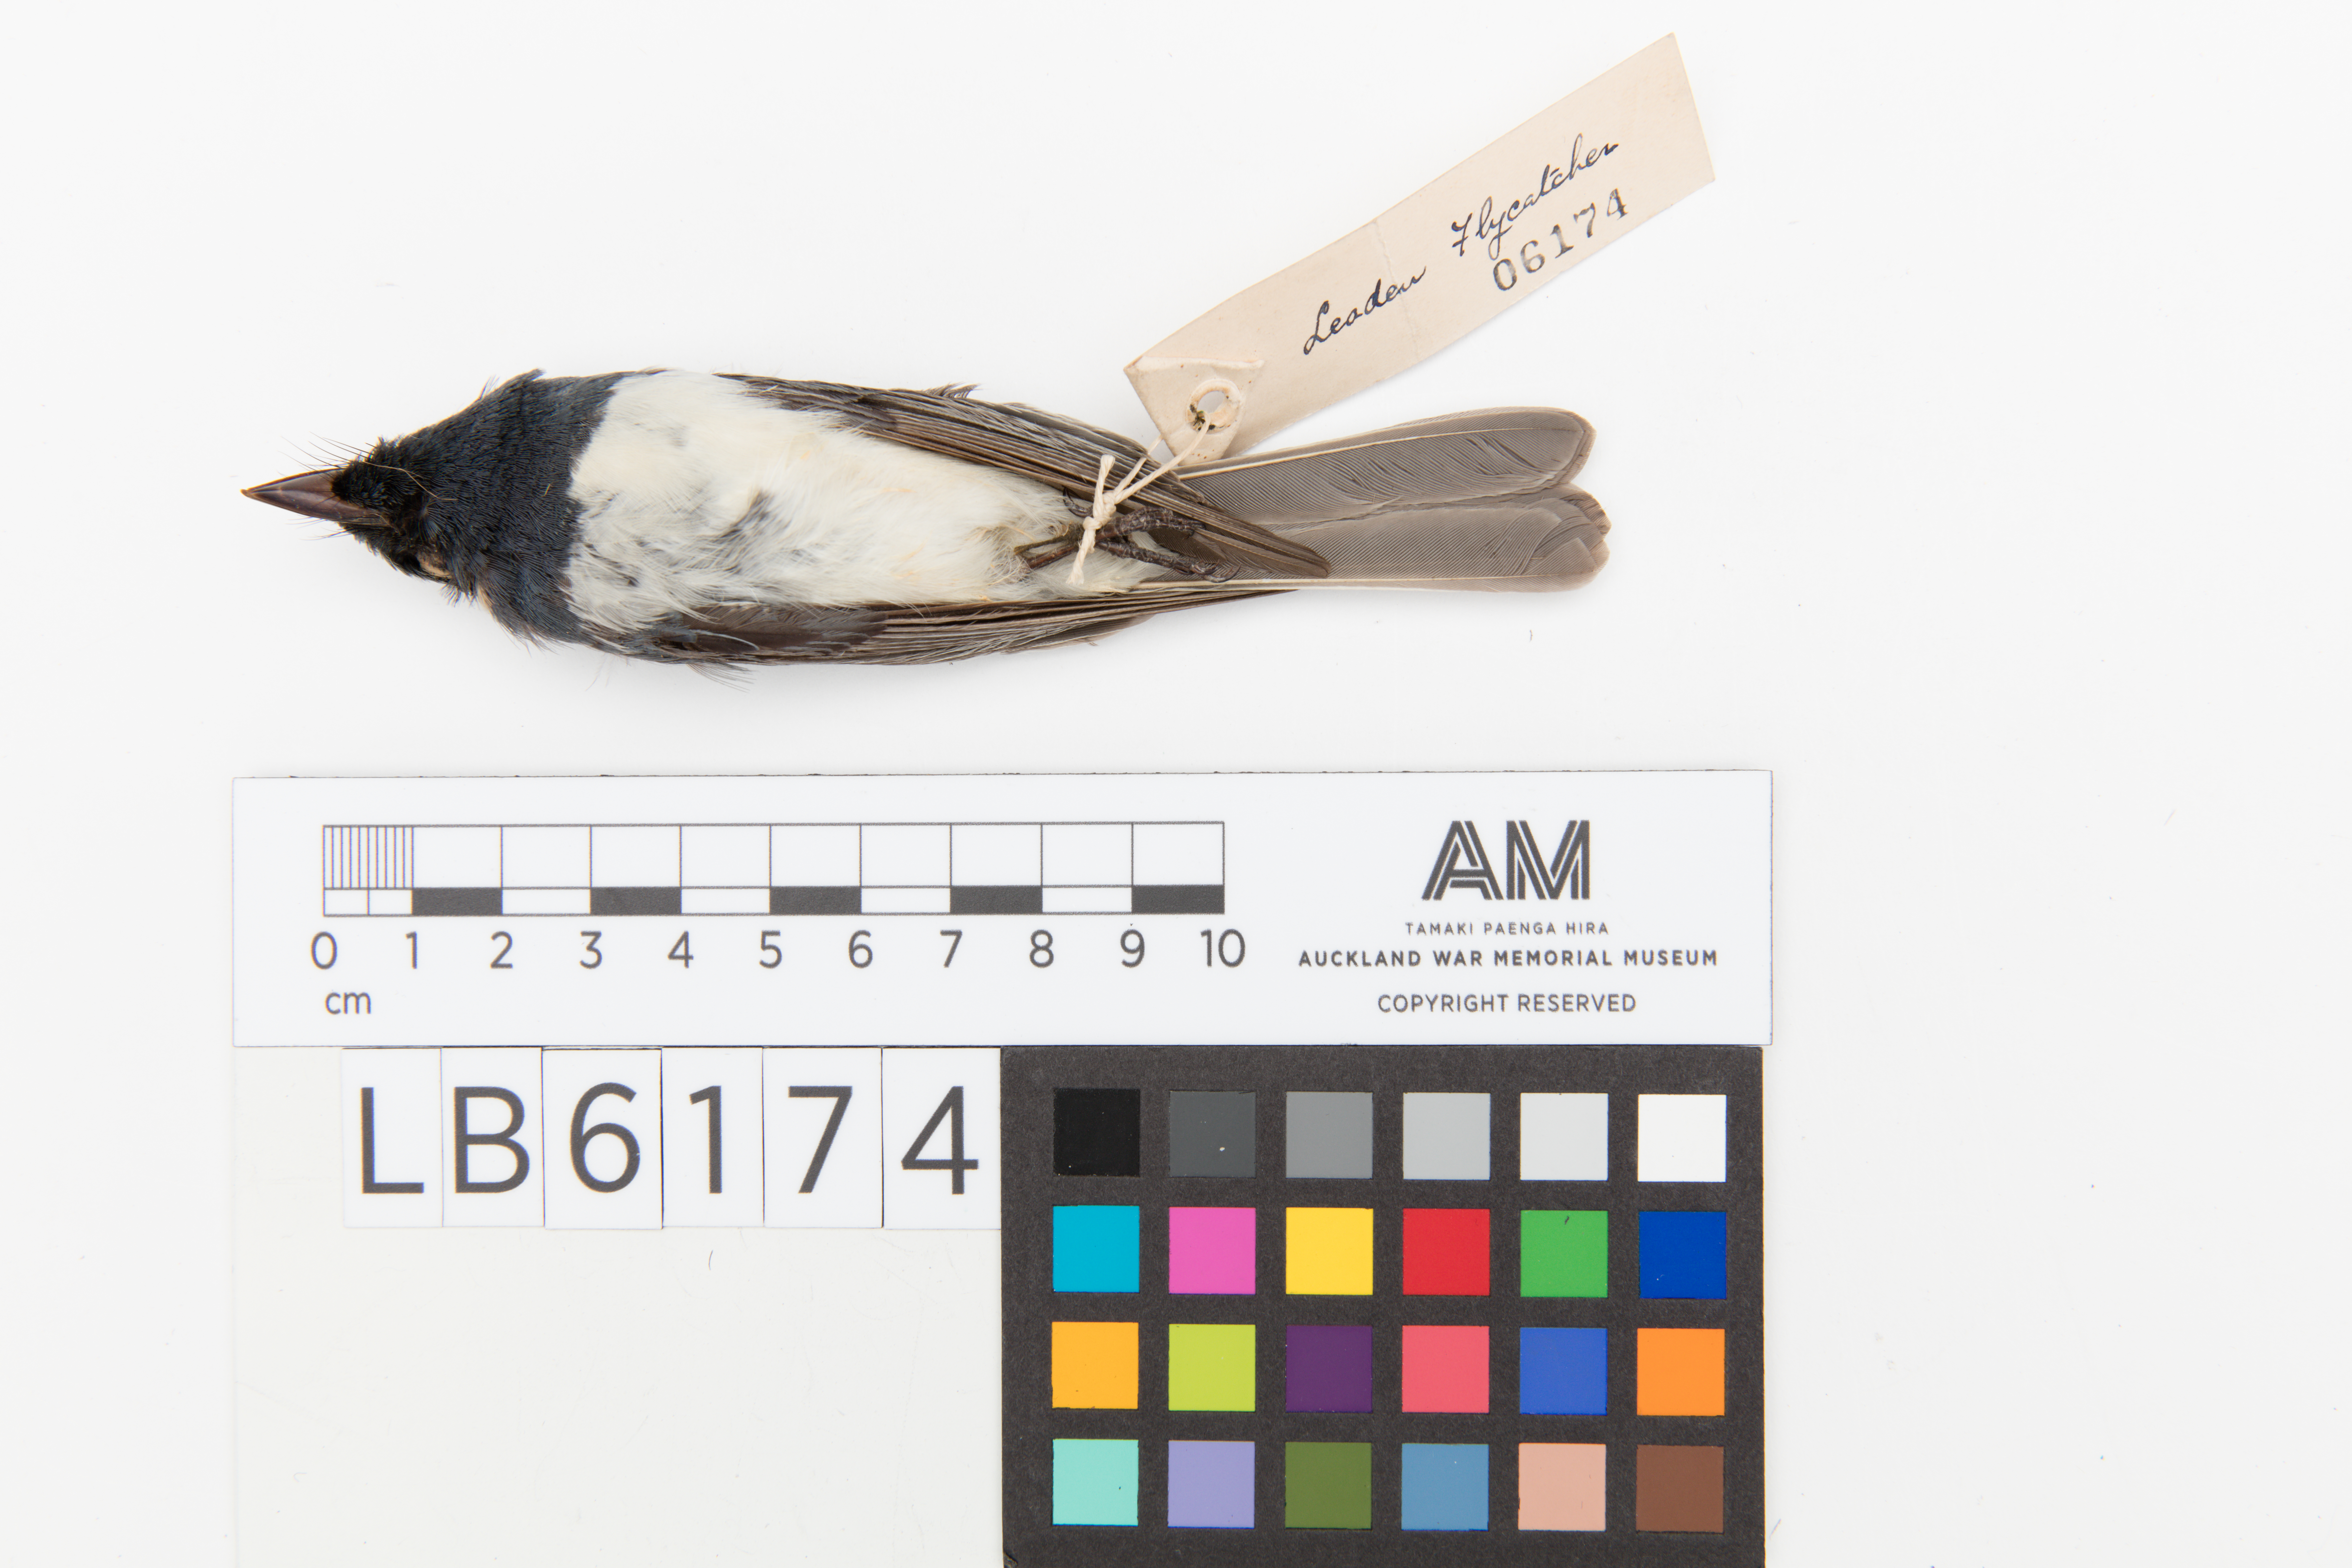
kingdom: Animalia
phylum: Chordata
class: Aves
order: Passeriformes
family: Monarchidae
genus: Myiagra
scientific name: Myiagra rubecula
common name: Leaden flycatcher
